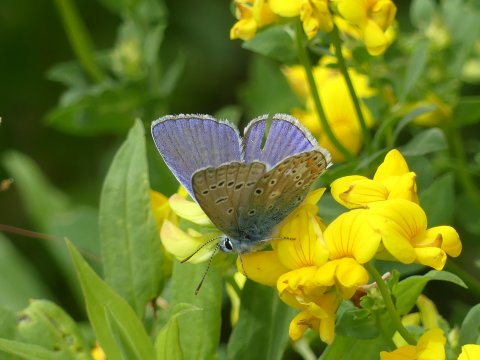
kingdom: Animalia
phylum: Arthropoda
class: Insecta
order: Lepidoptera
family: Lycaenidae
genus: Polyommatus
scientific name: Polyommatus icarus
